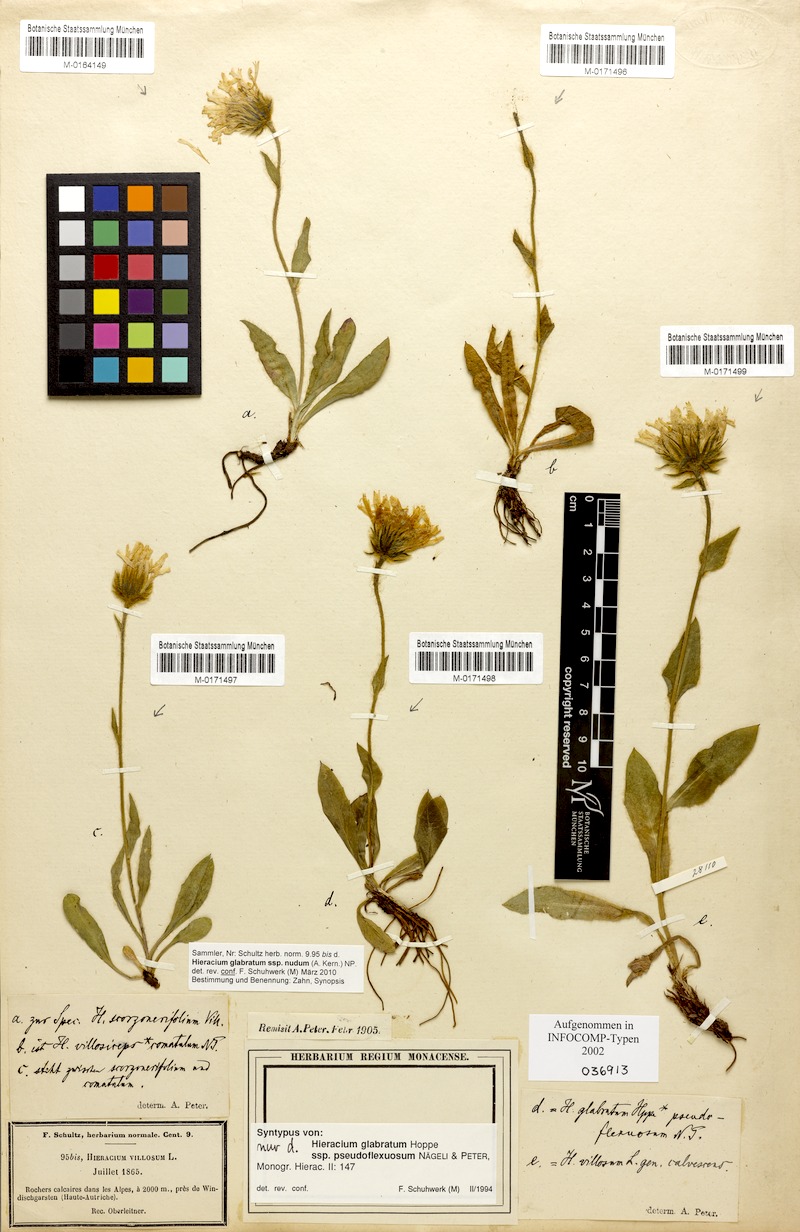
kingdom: Plantae
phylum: Tracheophyta
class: Magnoliopsida
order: Asterales
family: Asteraceae
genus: Hieracium
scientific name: Hieracium pilosum
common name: Fimbriate-pitted hawkweed
